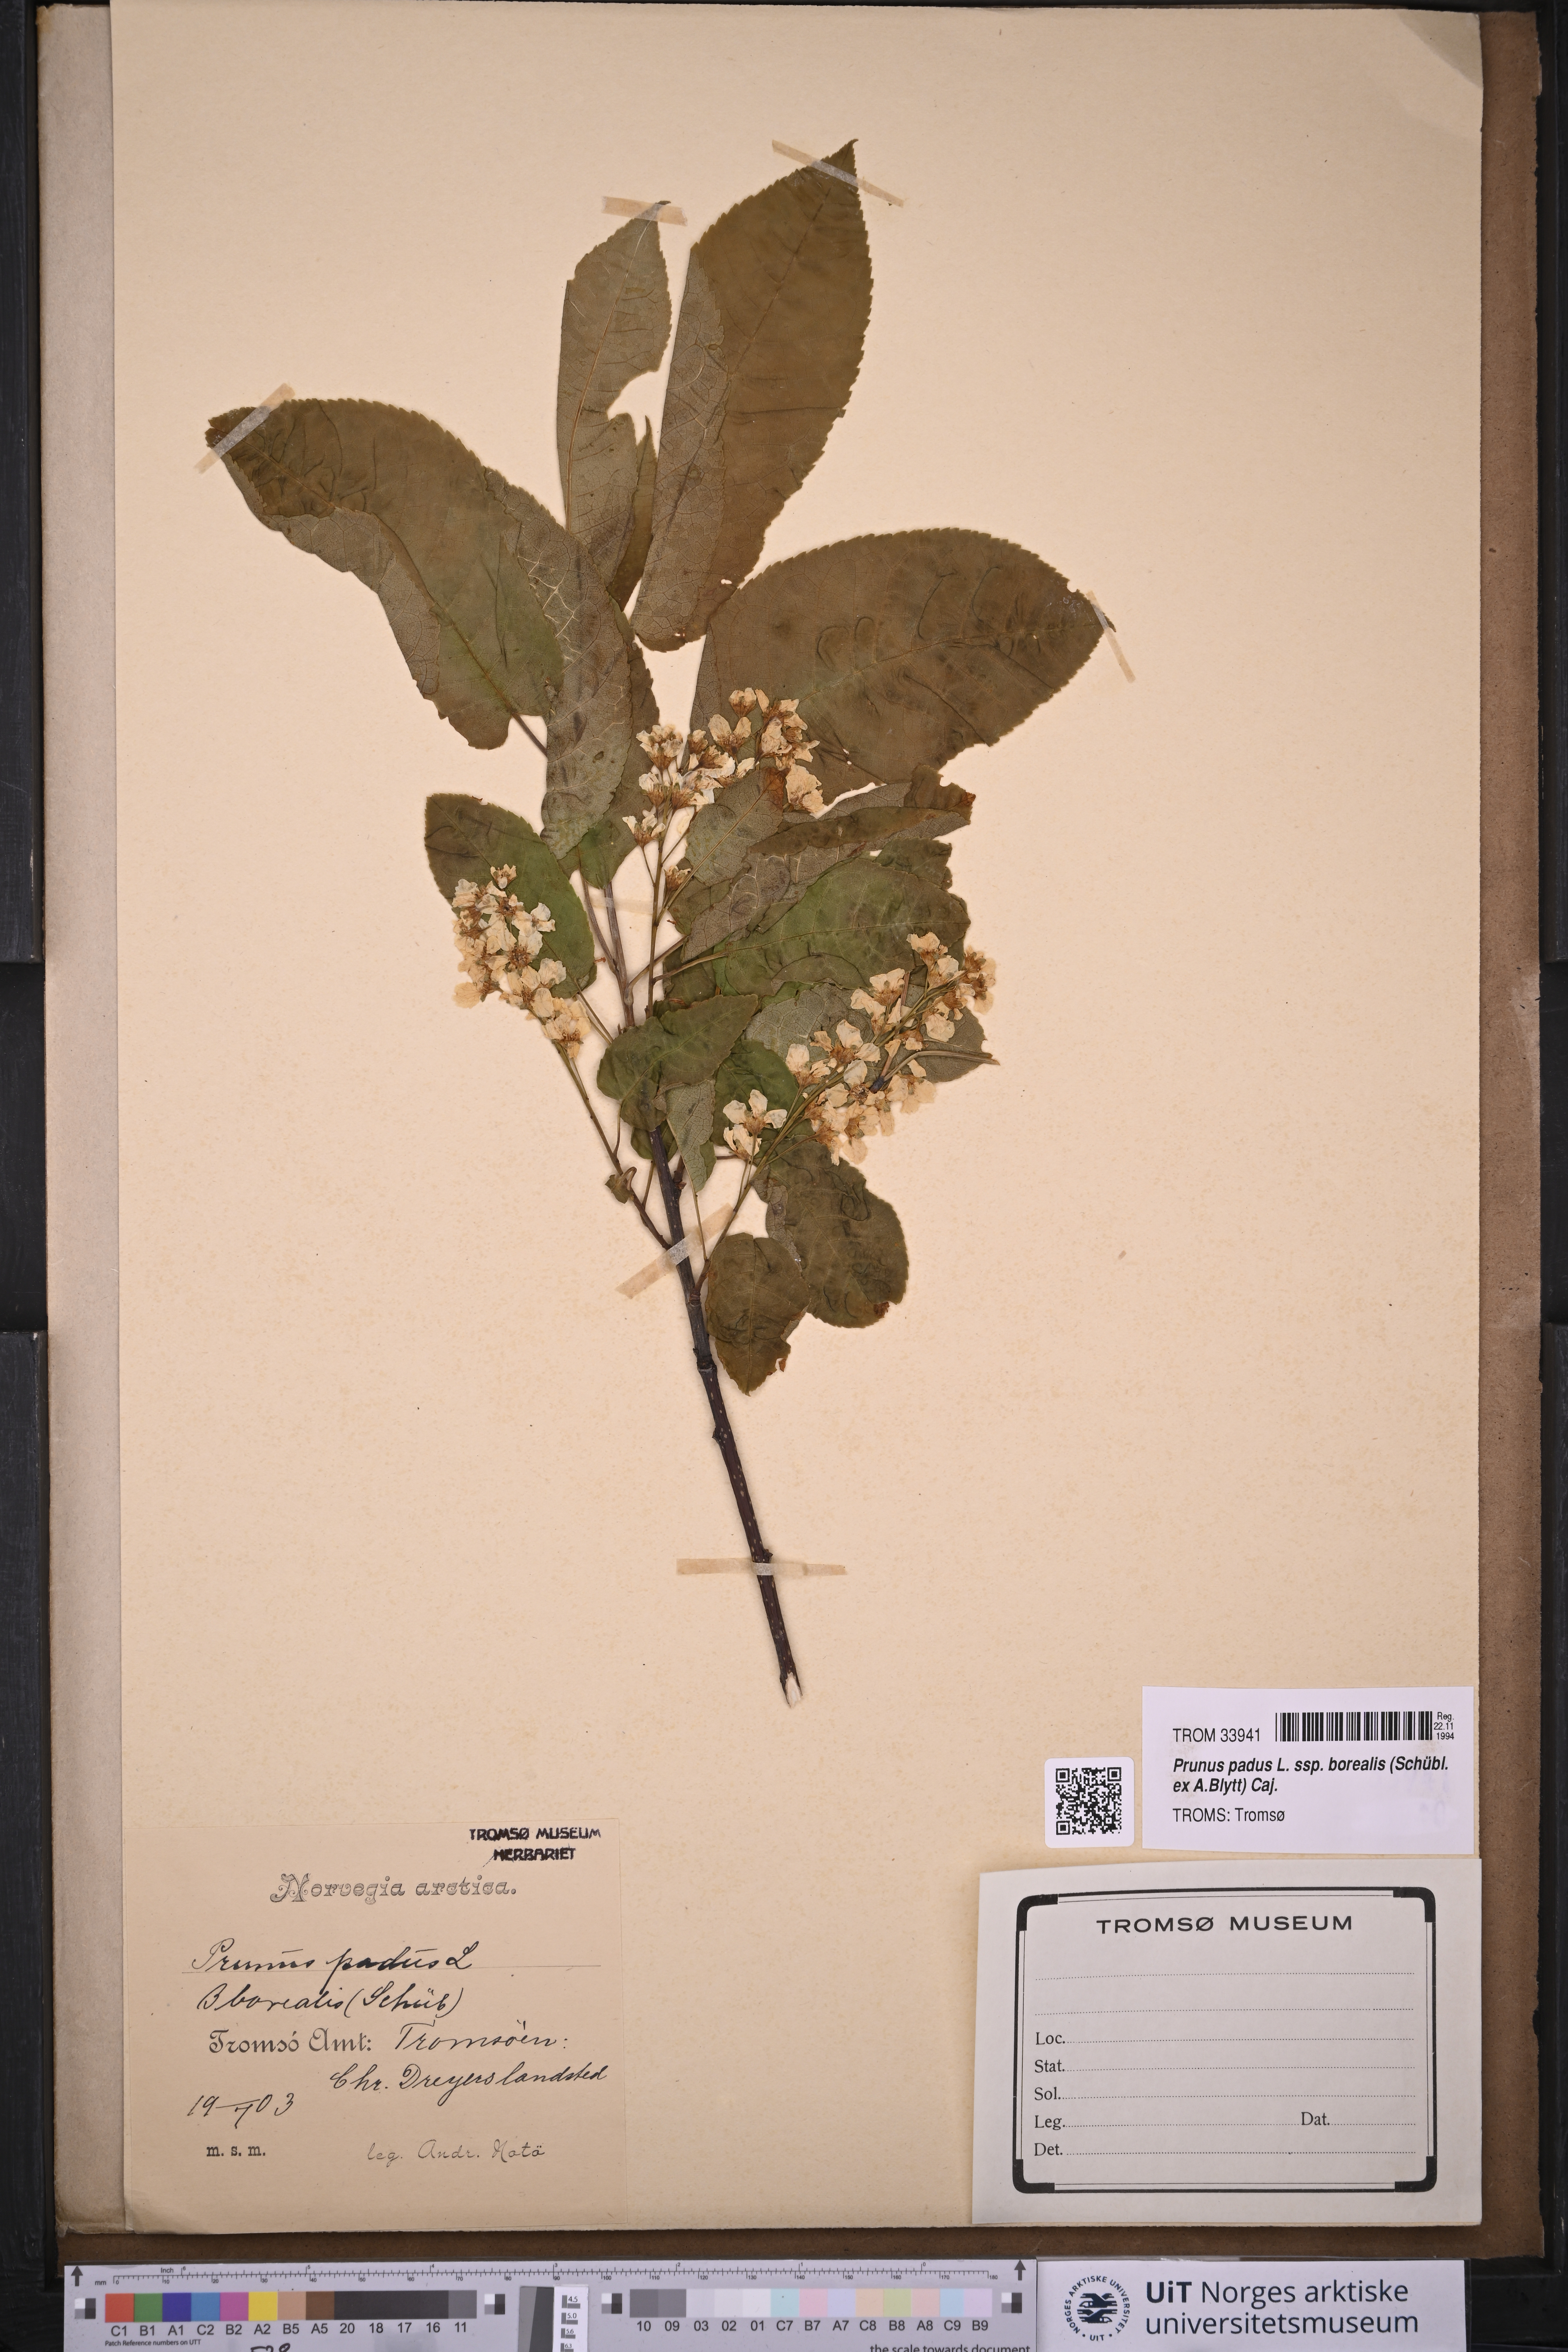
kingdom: Plantae
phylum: Tracheophyta
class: Magnoliopsida
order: Rosales
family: Rosaceae
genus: Prunus
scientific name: Prunus padus
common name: Bird cherry
